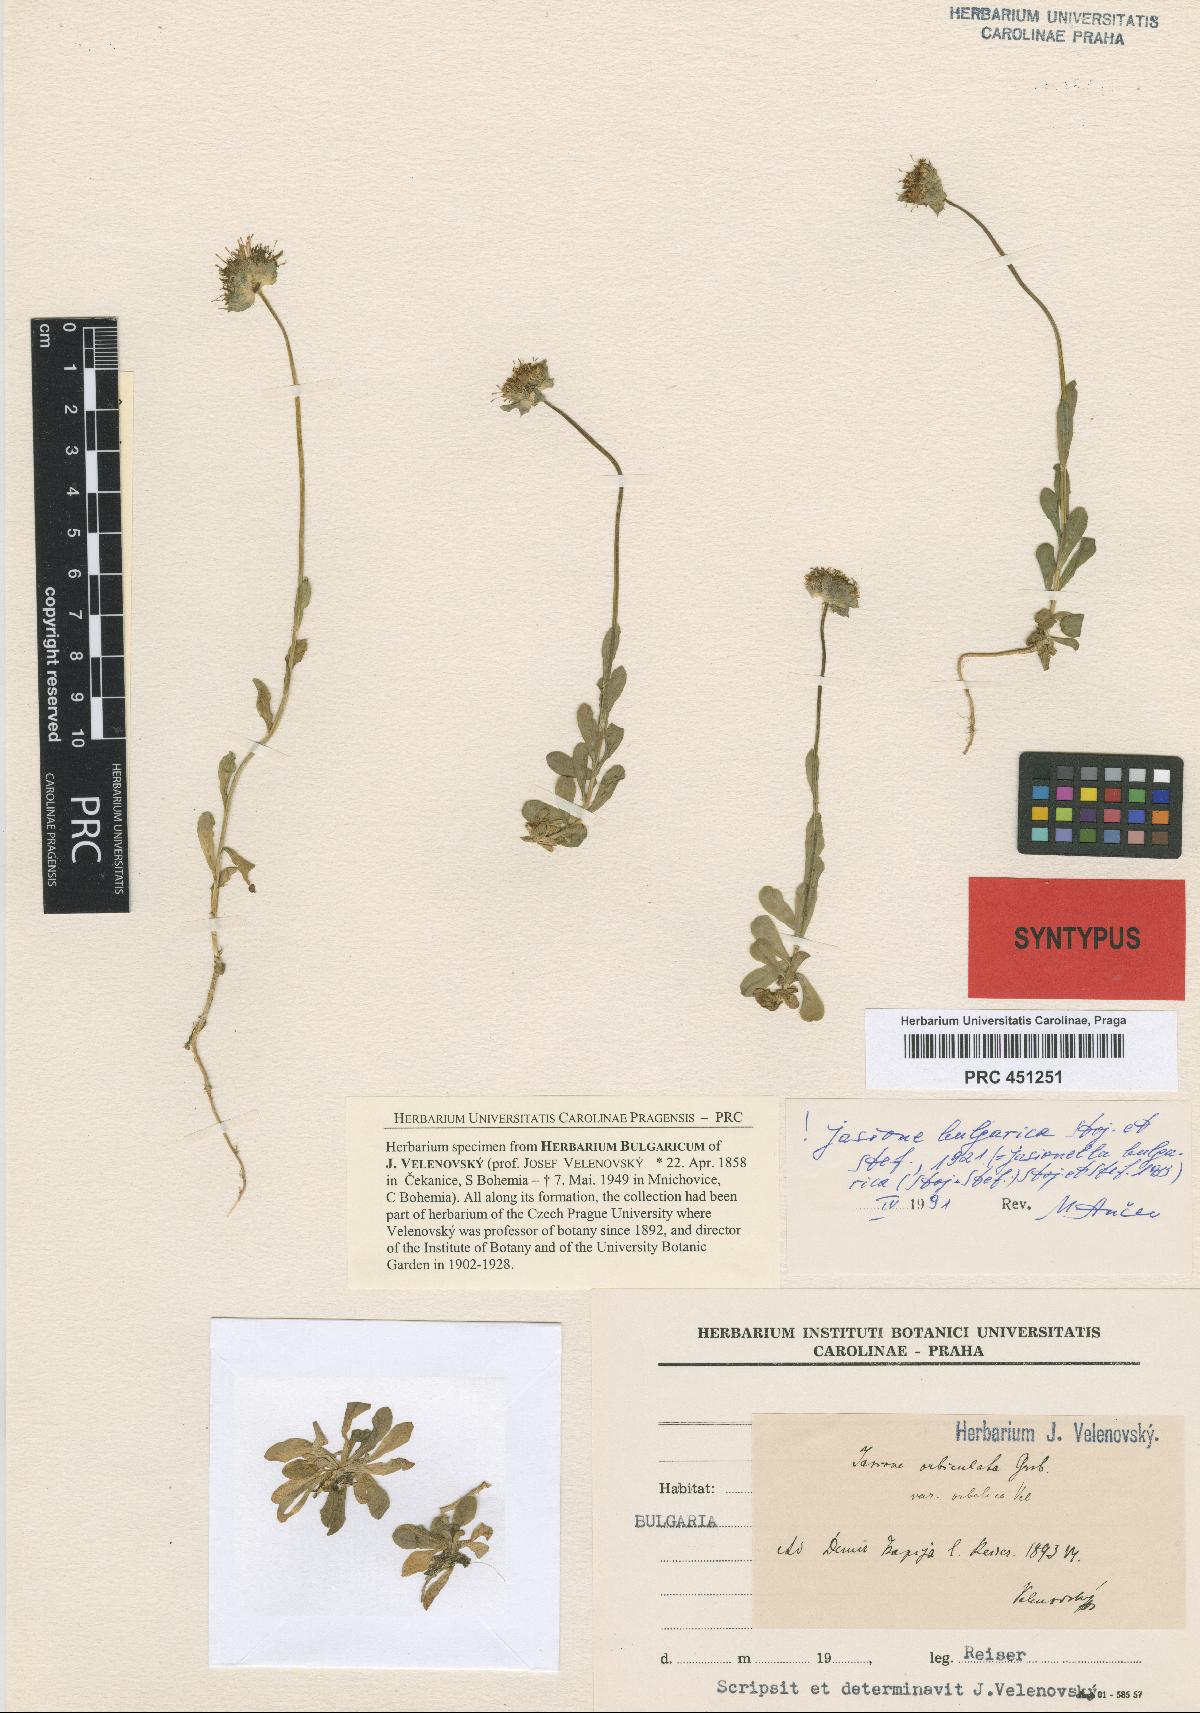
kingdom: Plantae
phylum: Tracheophyta
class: Magnoliopsida
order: Asterales
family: Campanulaceae
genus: Jasione
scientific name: Jasione orbiculata
